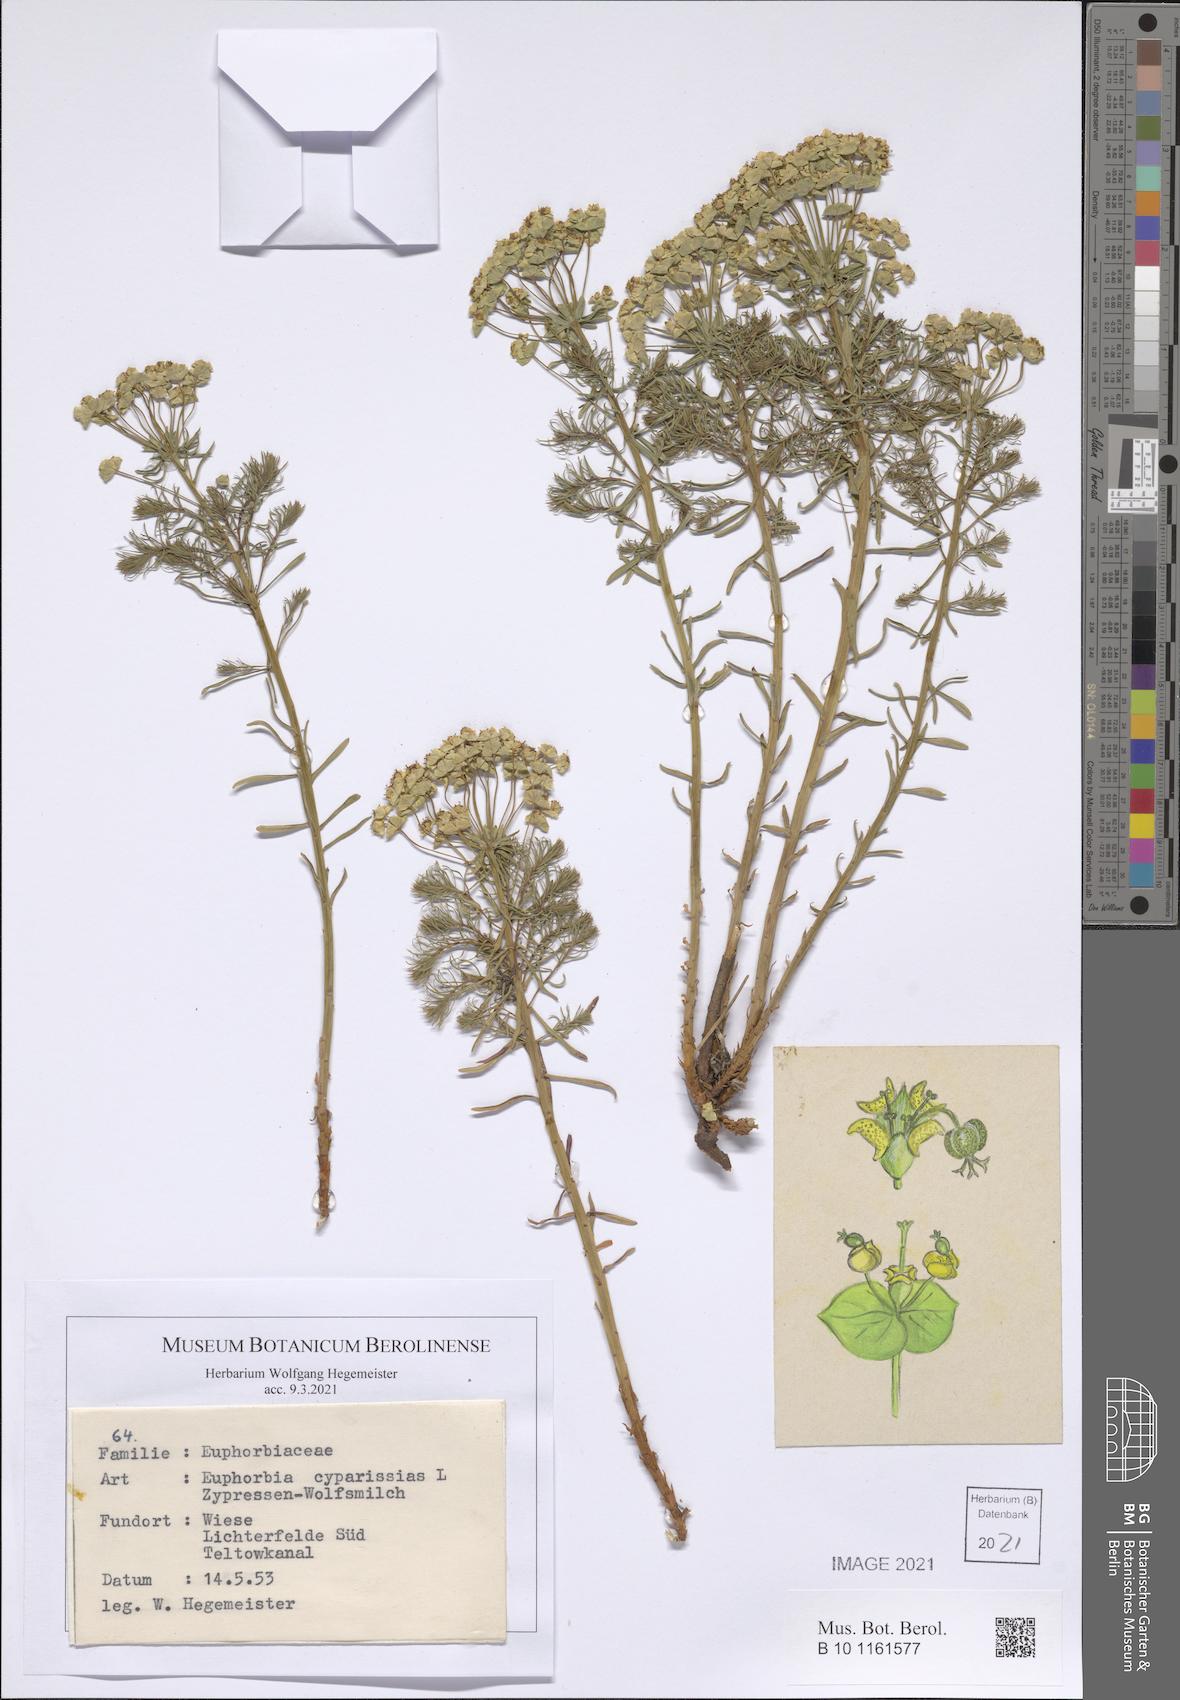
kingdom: Plantae
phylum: Tracheophyta
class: Magnoliopsida
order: Malpighiales
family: Euphorbiaceae
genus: Euphorbia
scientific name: Euphorbia cyparissias
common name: Cypress spurge
